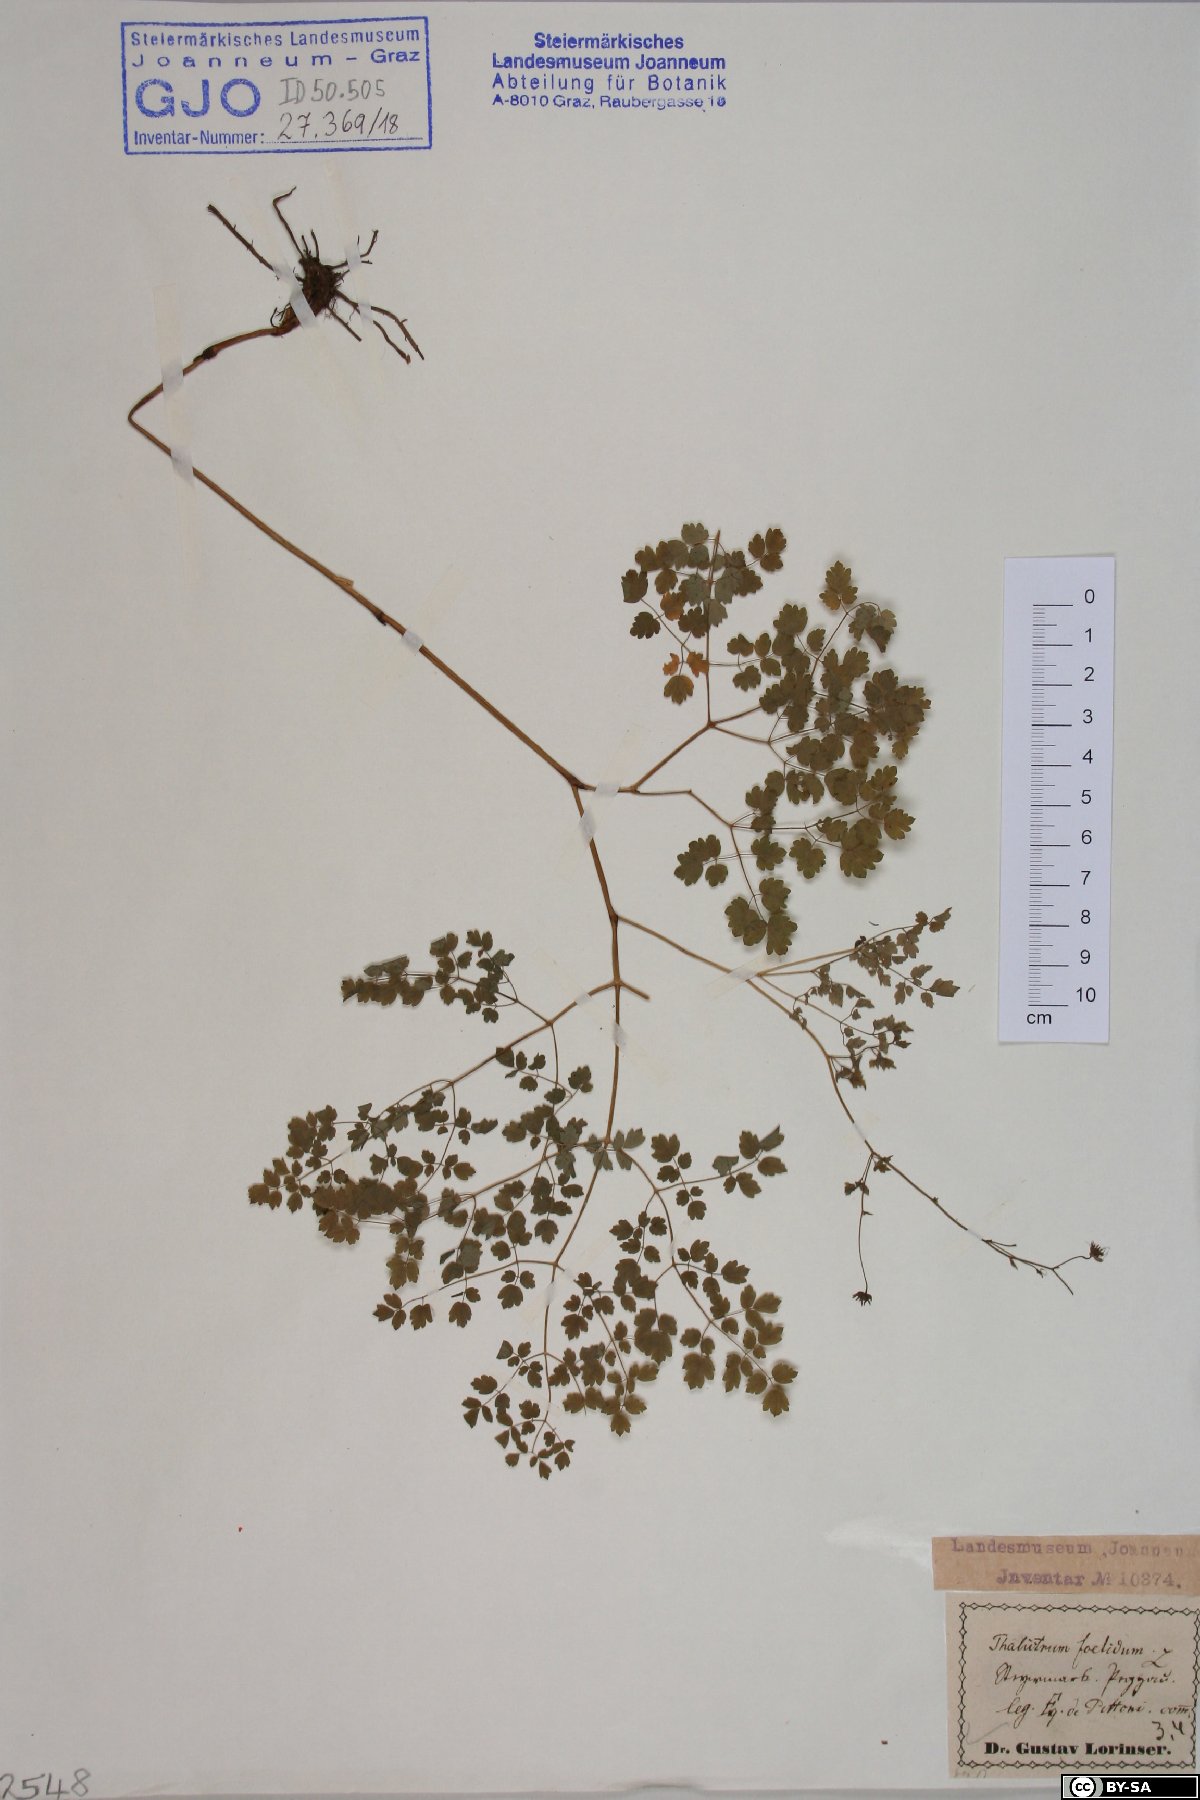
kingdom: Plantae
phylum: Tracheophyta
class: Magnoliopsida
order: Ranunculales
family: Ranunculaceae
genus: Thalictrum
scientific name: Thalictrum foetidum
